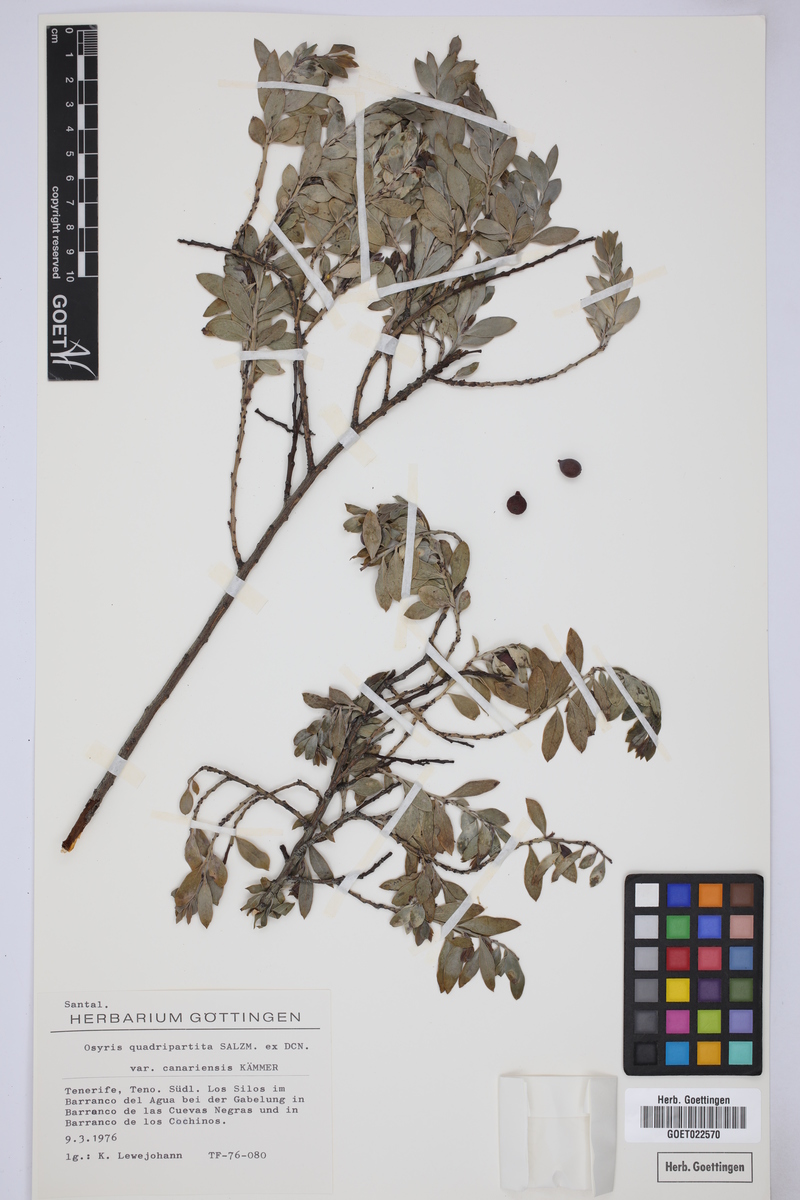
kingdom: Plantae
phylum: Tracheophyta
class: Magnoliopsida
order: Santalales
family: Santalaceae
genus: Osyris
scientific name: Osyris quadripartita
